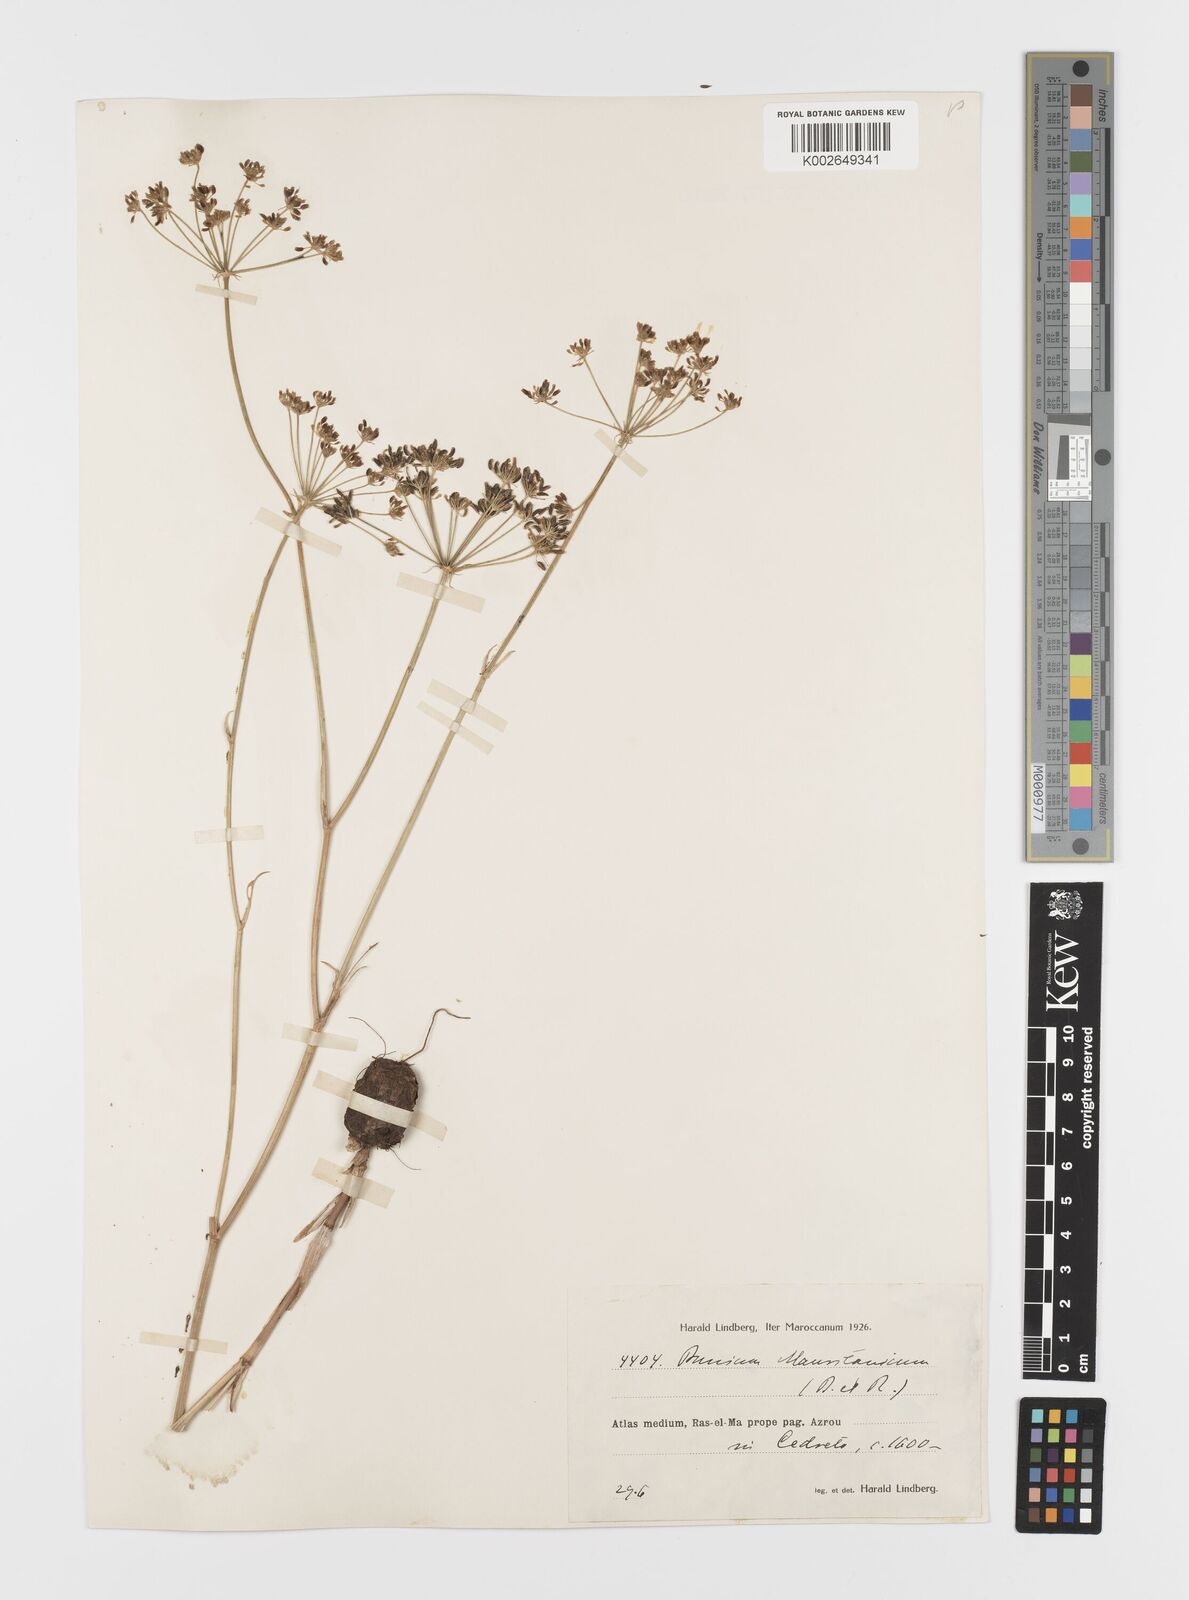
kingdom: Plantae
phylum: Tracheophyta
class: Magnoliopsida
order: Apiales
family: Apiaceae
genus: Bunium
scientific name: Bunium fontanesii
